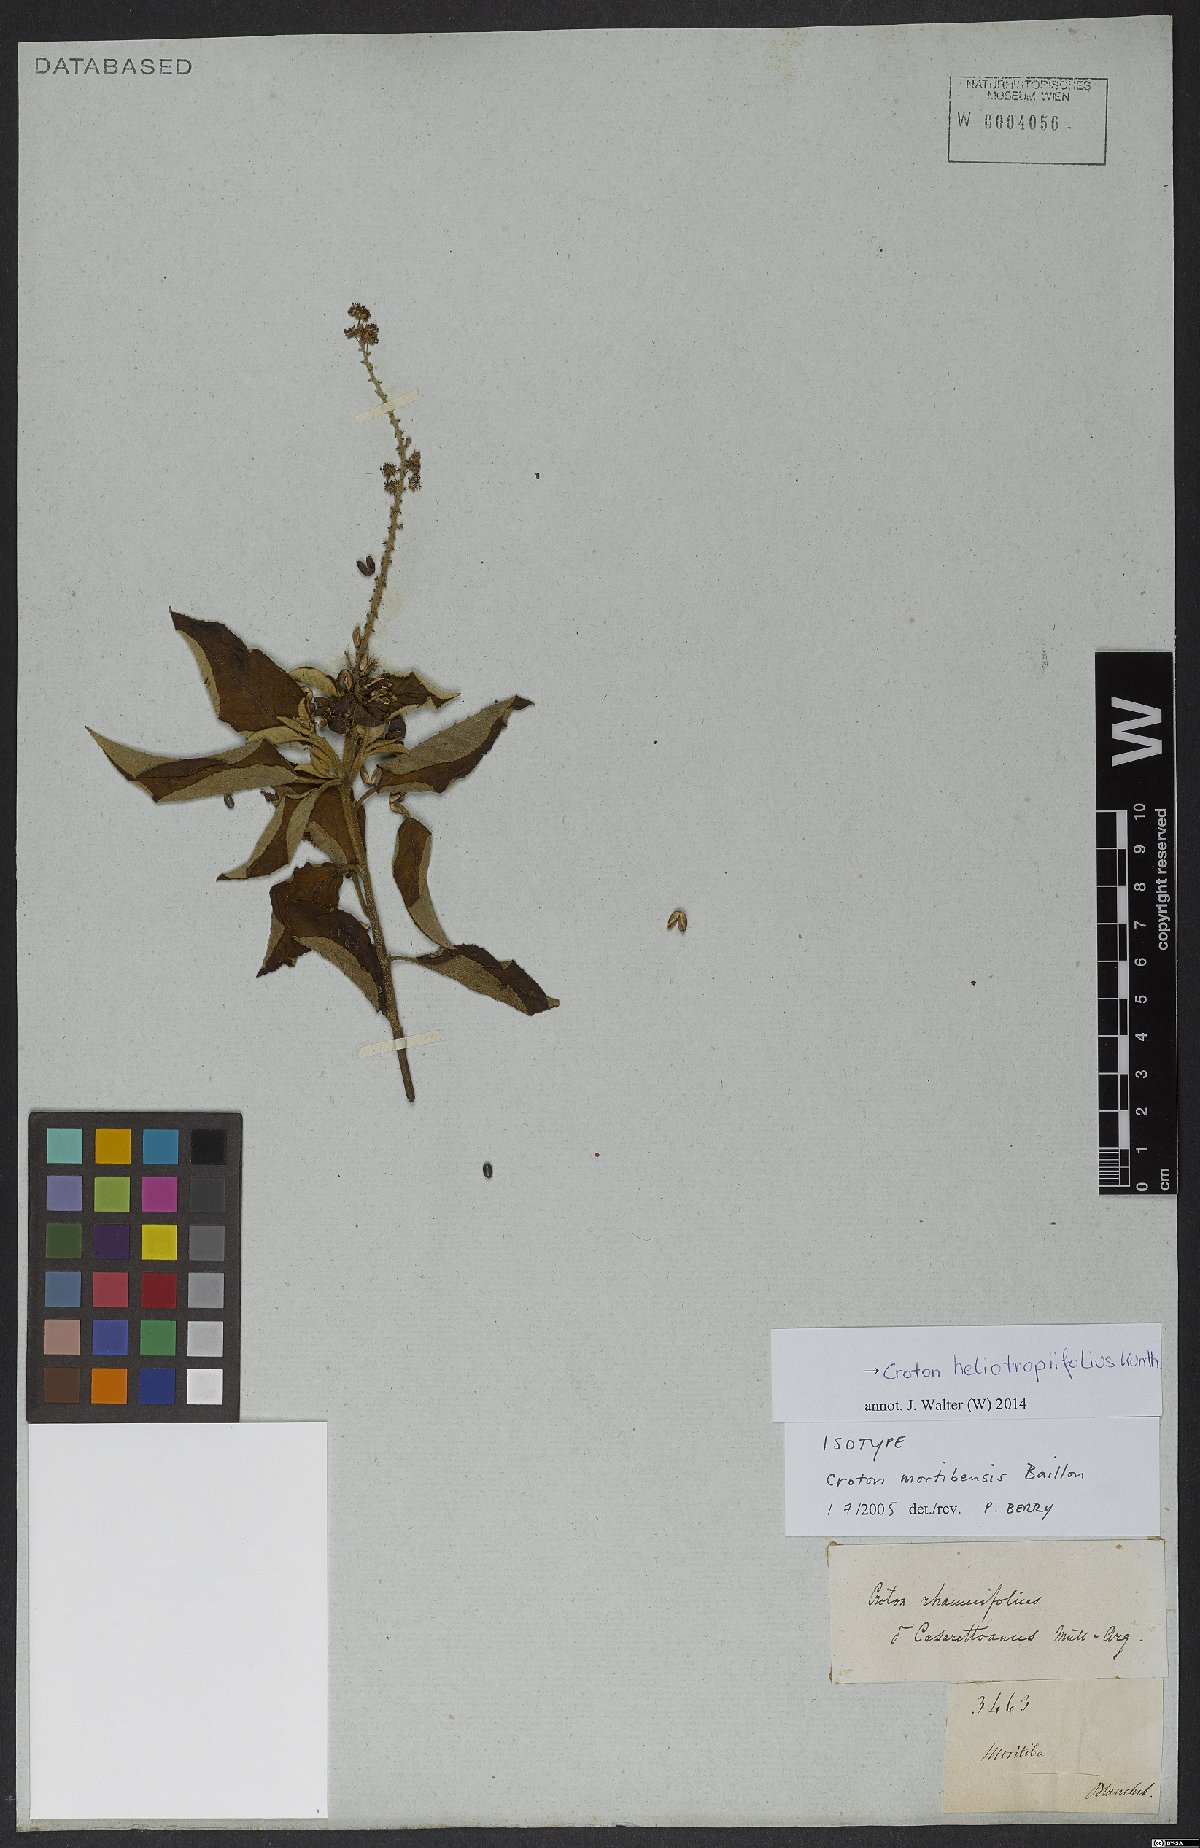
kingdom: Plantae
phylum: Tracheophyta
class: Magnoliopsida
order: Malpighiales
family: Euphorbiaceae
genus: Croton
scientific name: Croton heliotropiifolius
